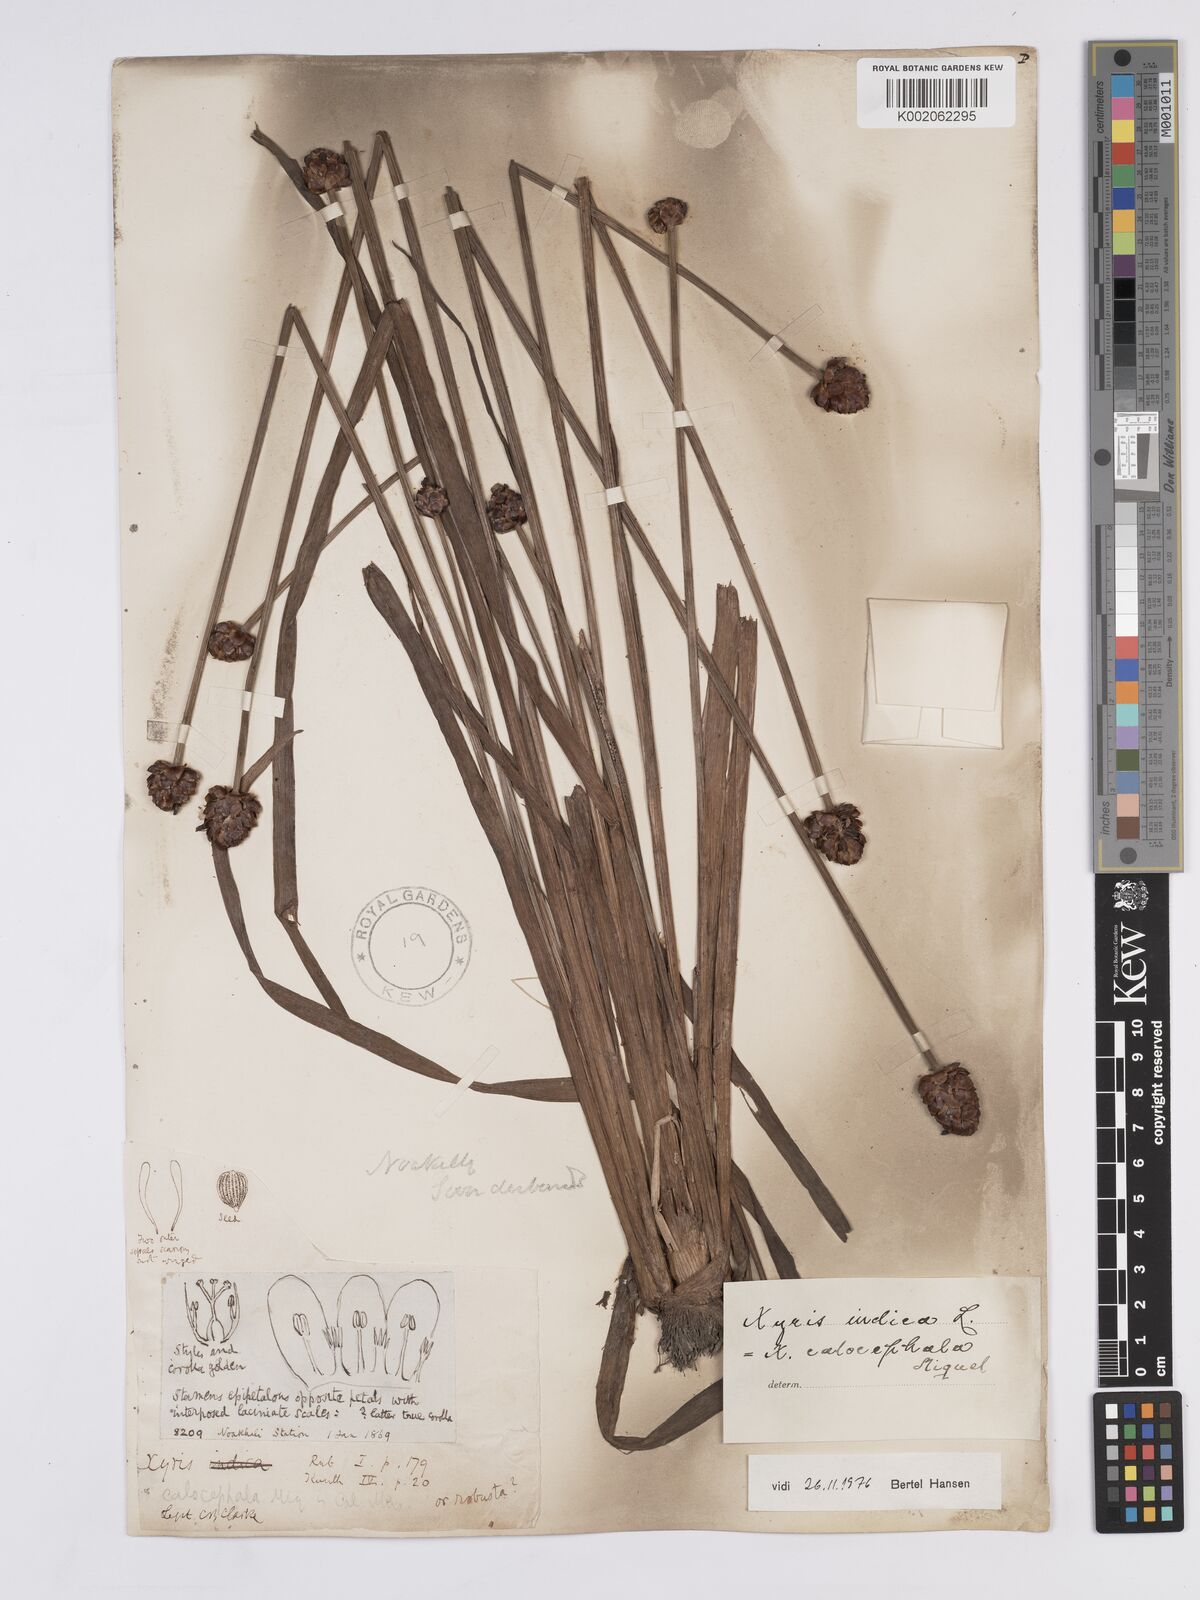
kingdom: Plantae
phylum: Tracheophyta
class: Liliopsida
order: Poales
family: Xyridaceae
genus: Xyris
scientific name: Xyris indica
